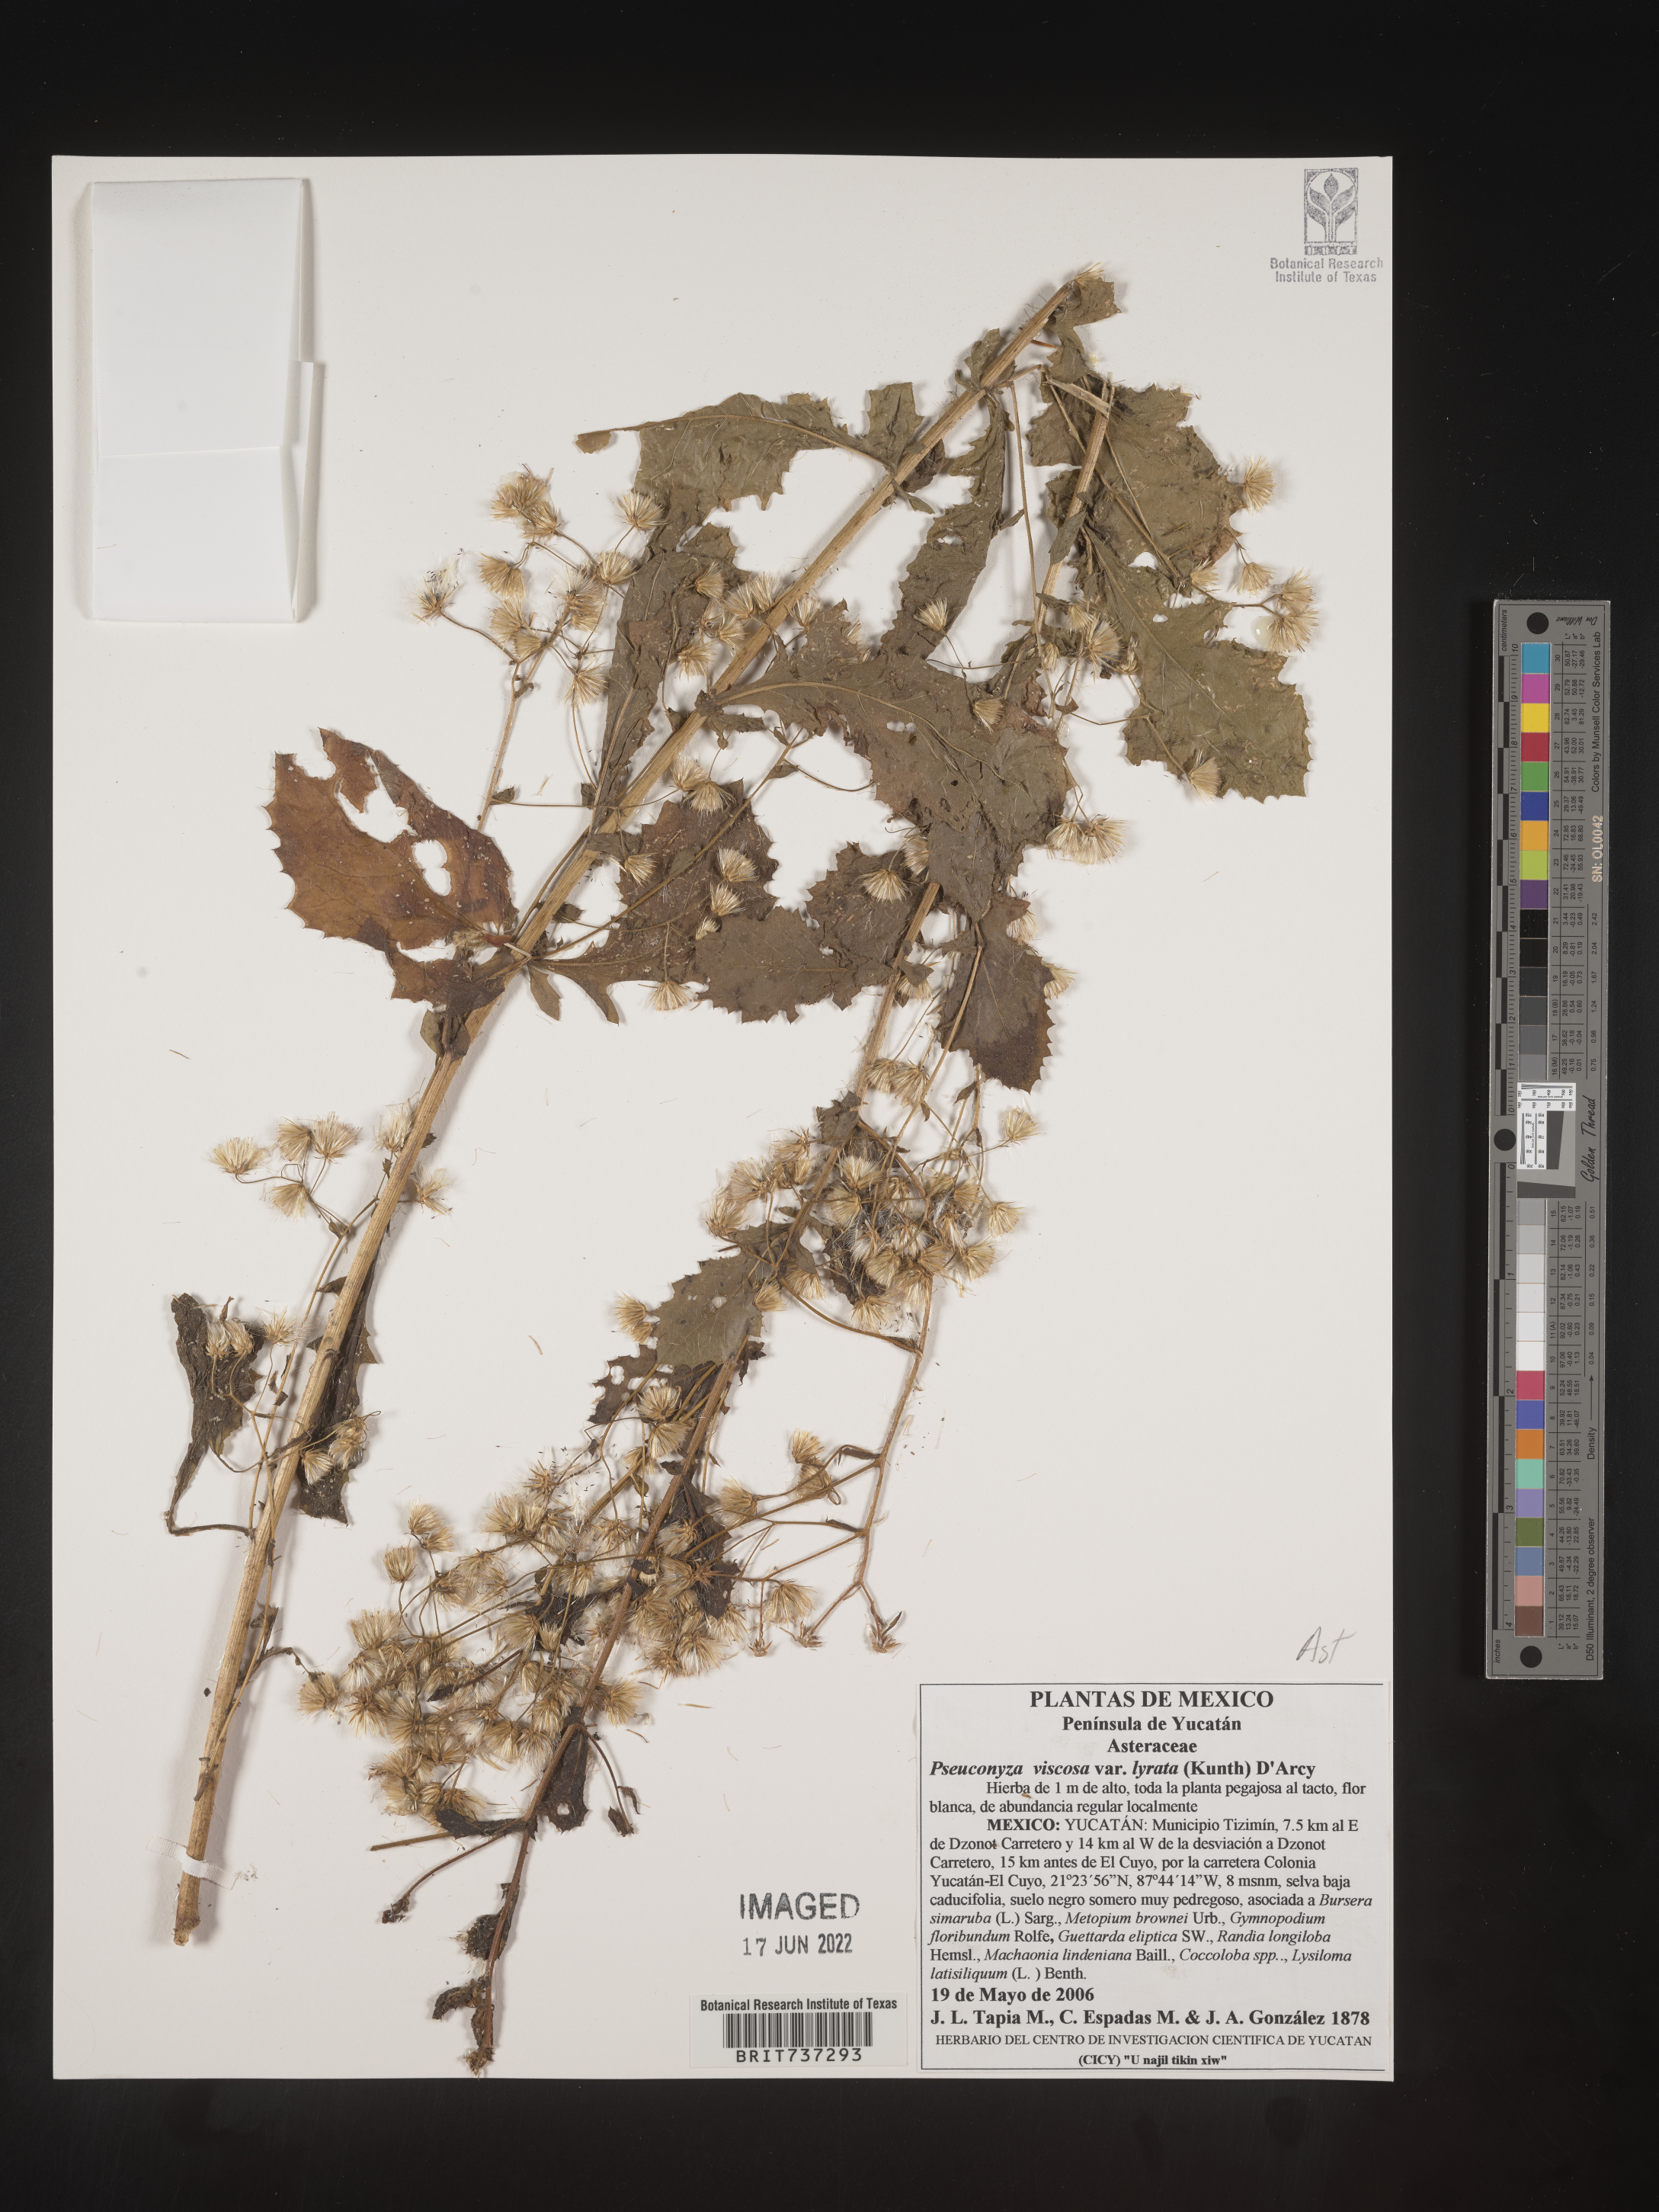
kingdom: Plantae
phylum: Tracheophyta
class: Magnoliopsida
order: Asterales
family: Asteraceae
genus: Pseudoconyza
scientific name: Pseudoconyza
